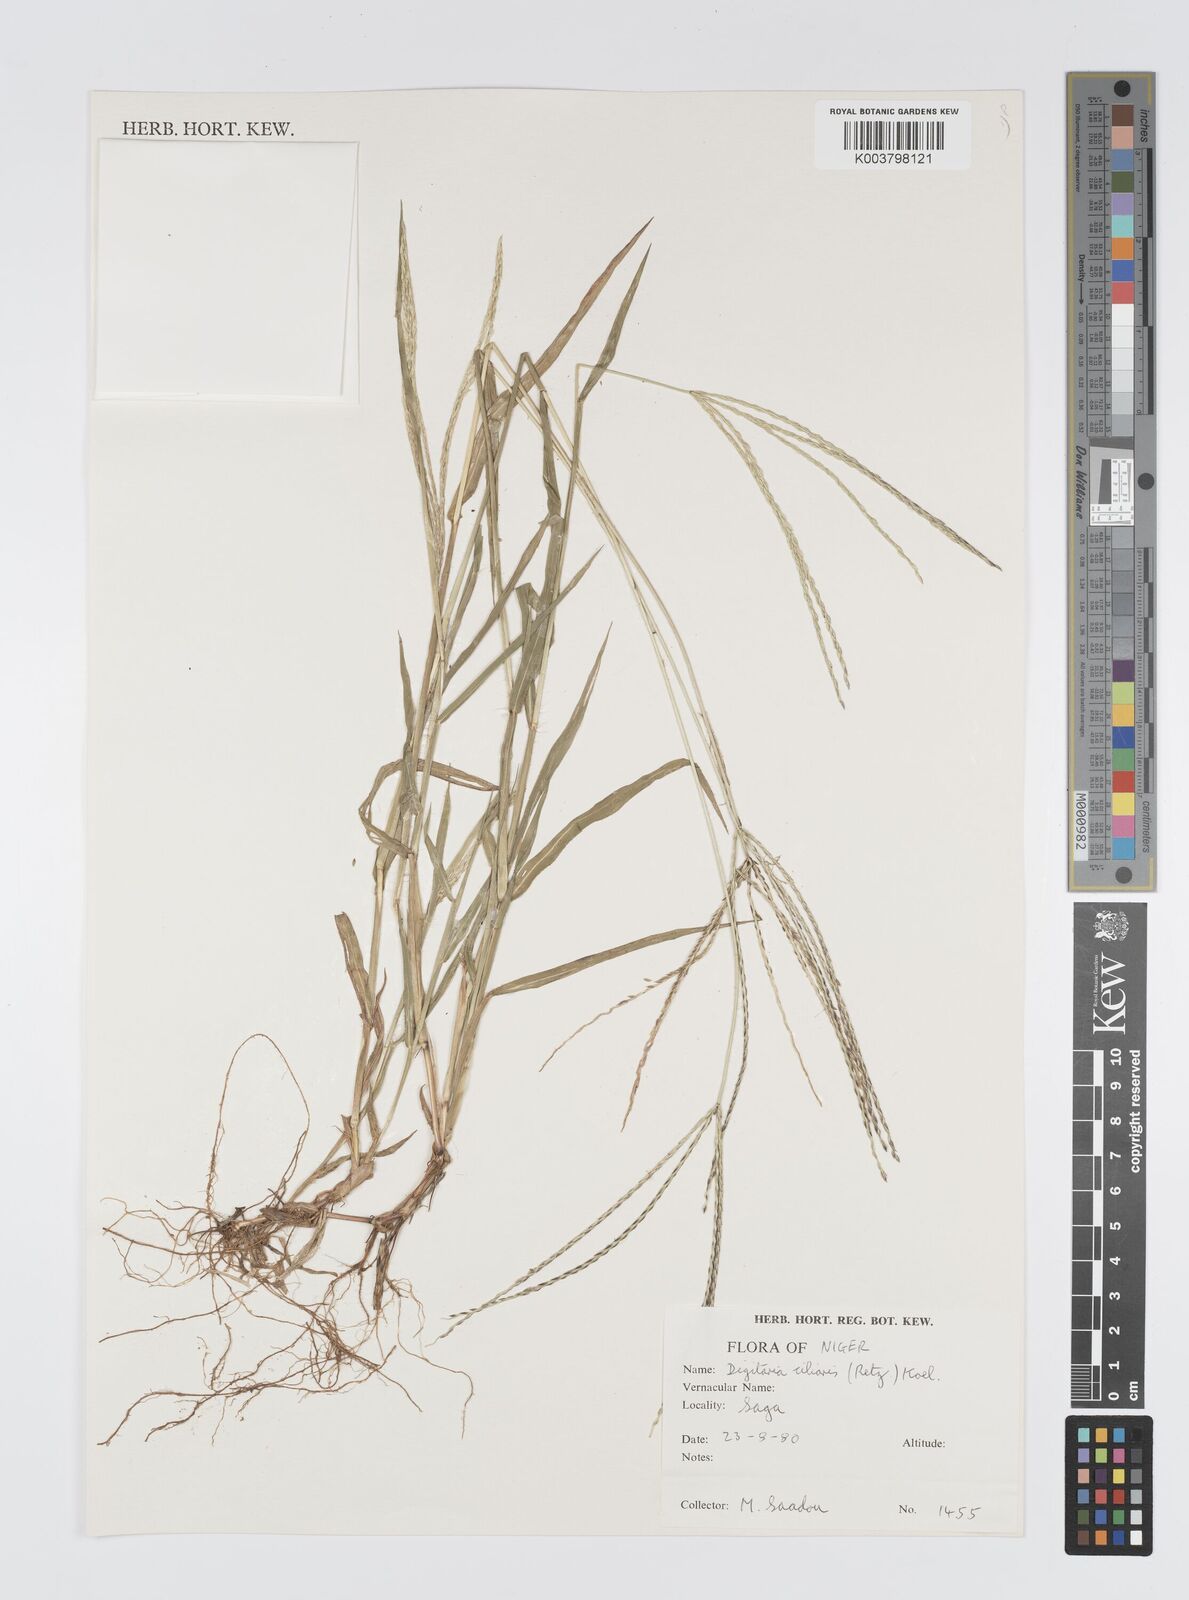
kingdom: Plantae
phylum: Tracheophyta
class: Liliopsida
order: Poales
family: Poaceae
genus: Digitaria
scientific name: Digitaria
